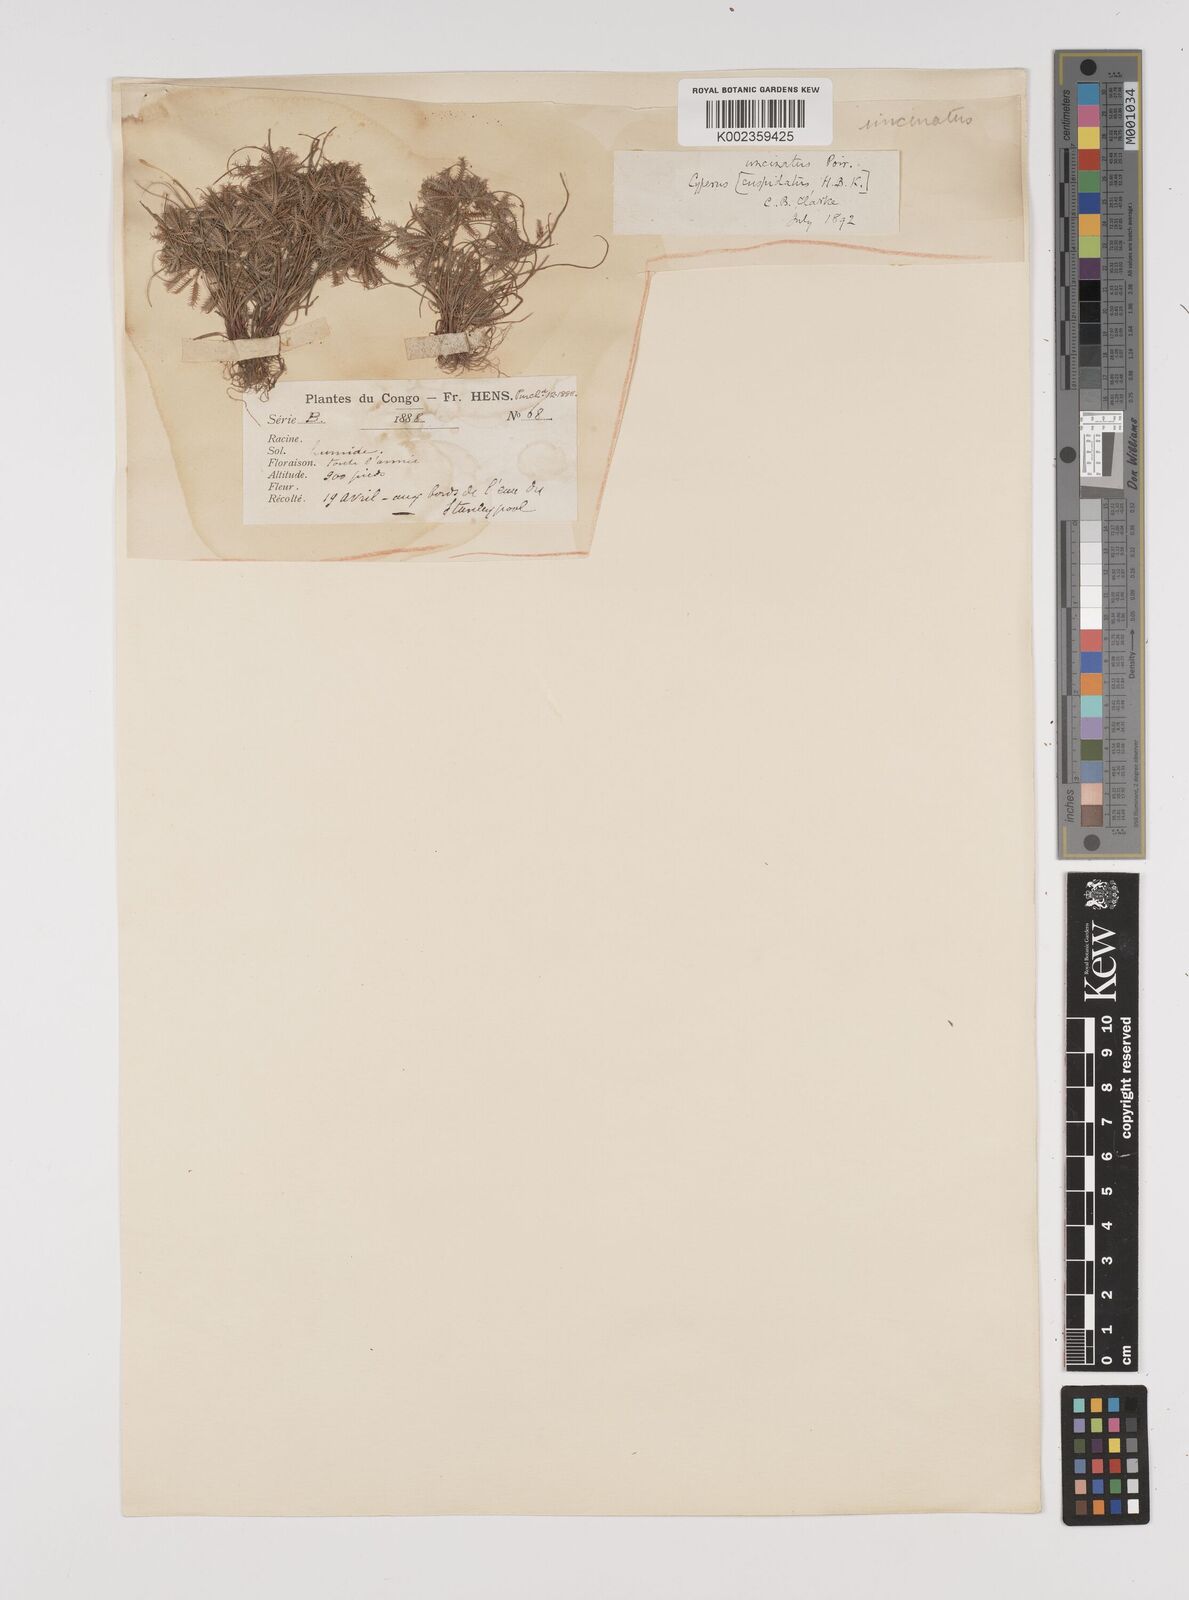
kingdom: Plantae
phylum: Tracheophyta
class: Liliopsida
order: Poales
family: Cyperaceae
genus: Cyperus
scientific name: Cyperus cuspidatus
